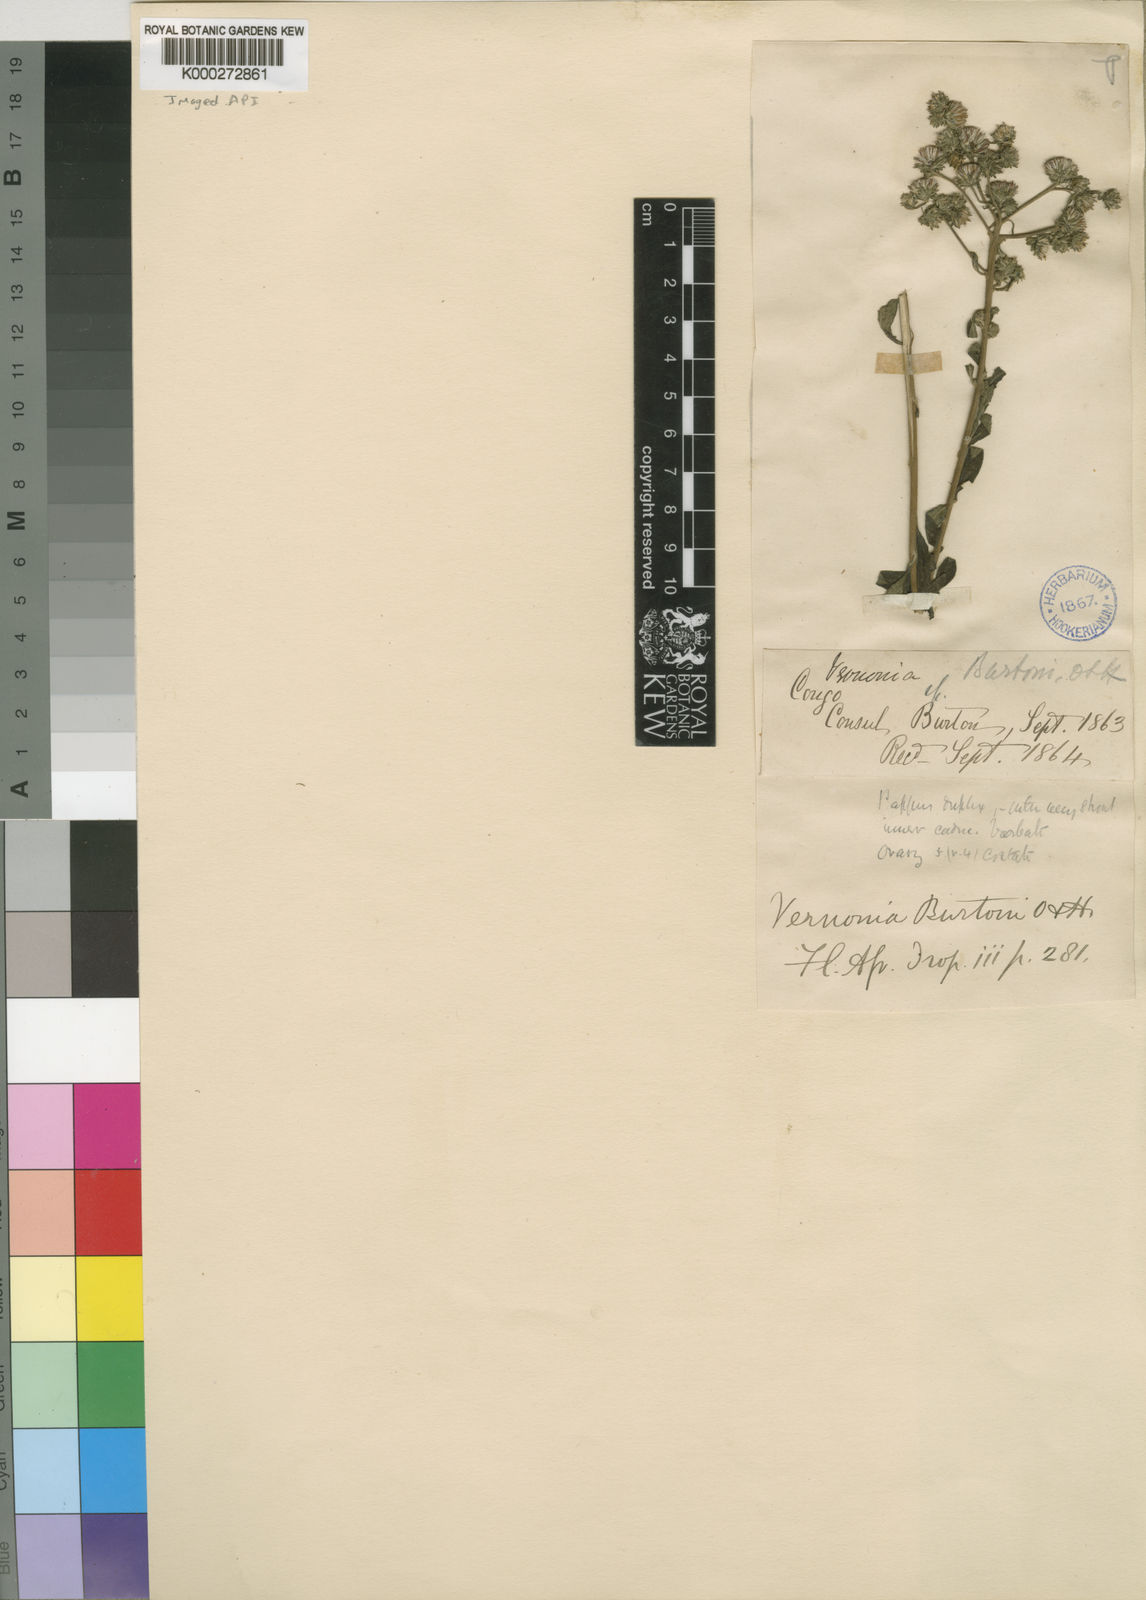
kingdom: Plantae
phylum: Tracheophyta
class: Magnoliopsida
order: Asterales
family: Asteraceae
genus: Orbivestus
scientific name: Orbivestus karaguensis
